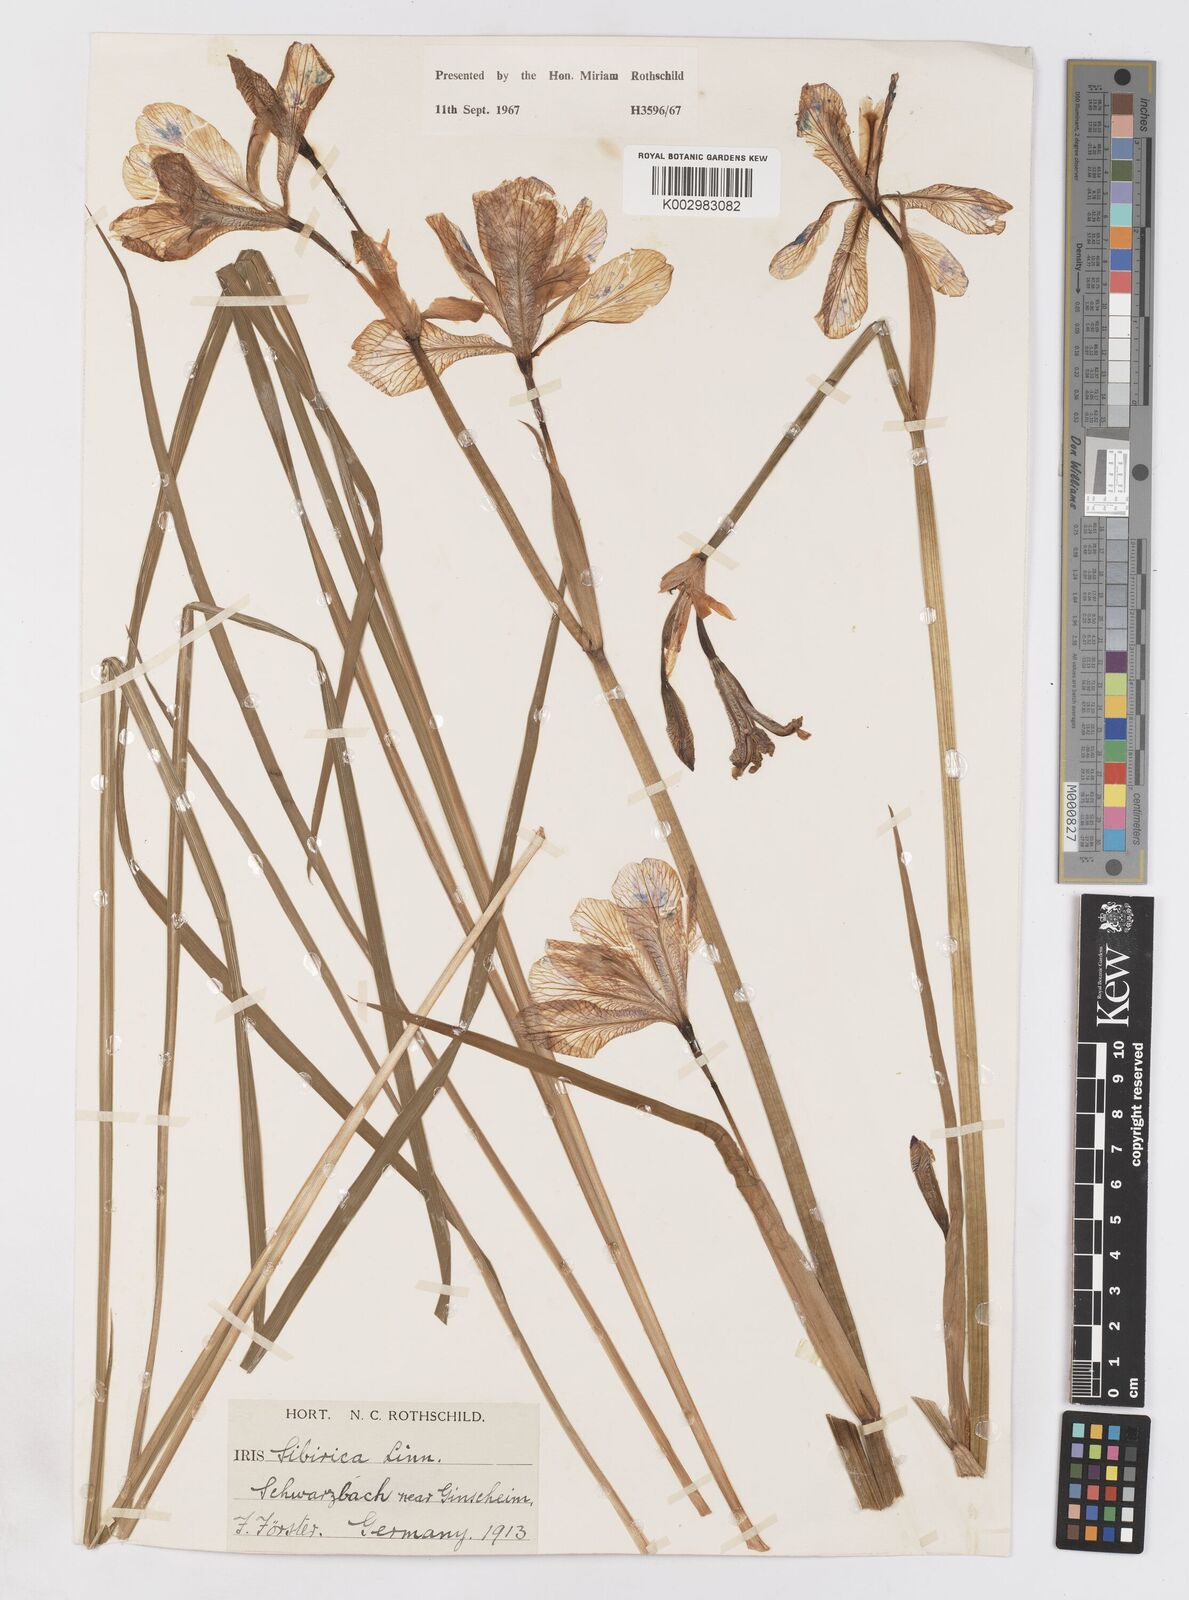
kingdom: Plantae
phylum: Tracheophyta
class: Liliopsida
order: Asparagales
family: Iridaceae
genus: Iris
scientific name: Iris sibirica
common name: Siberian iris
